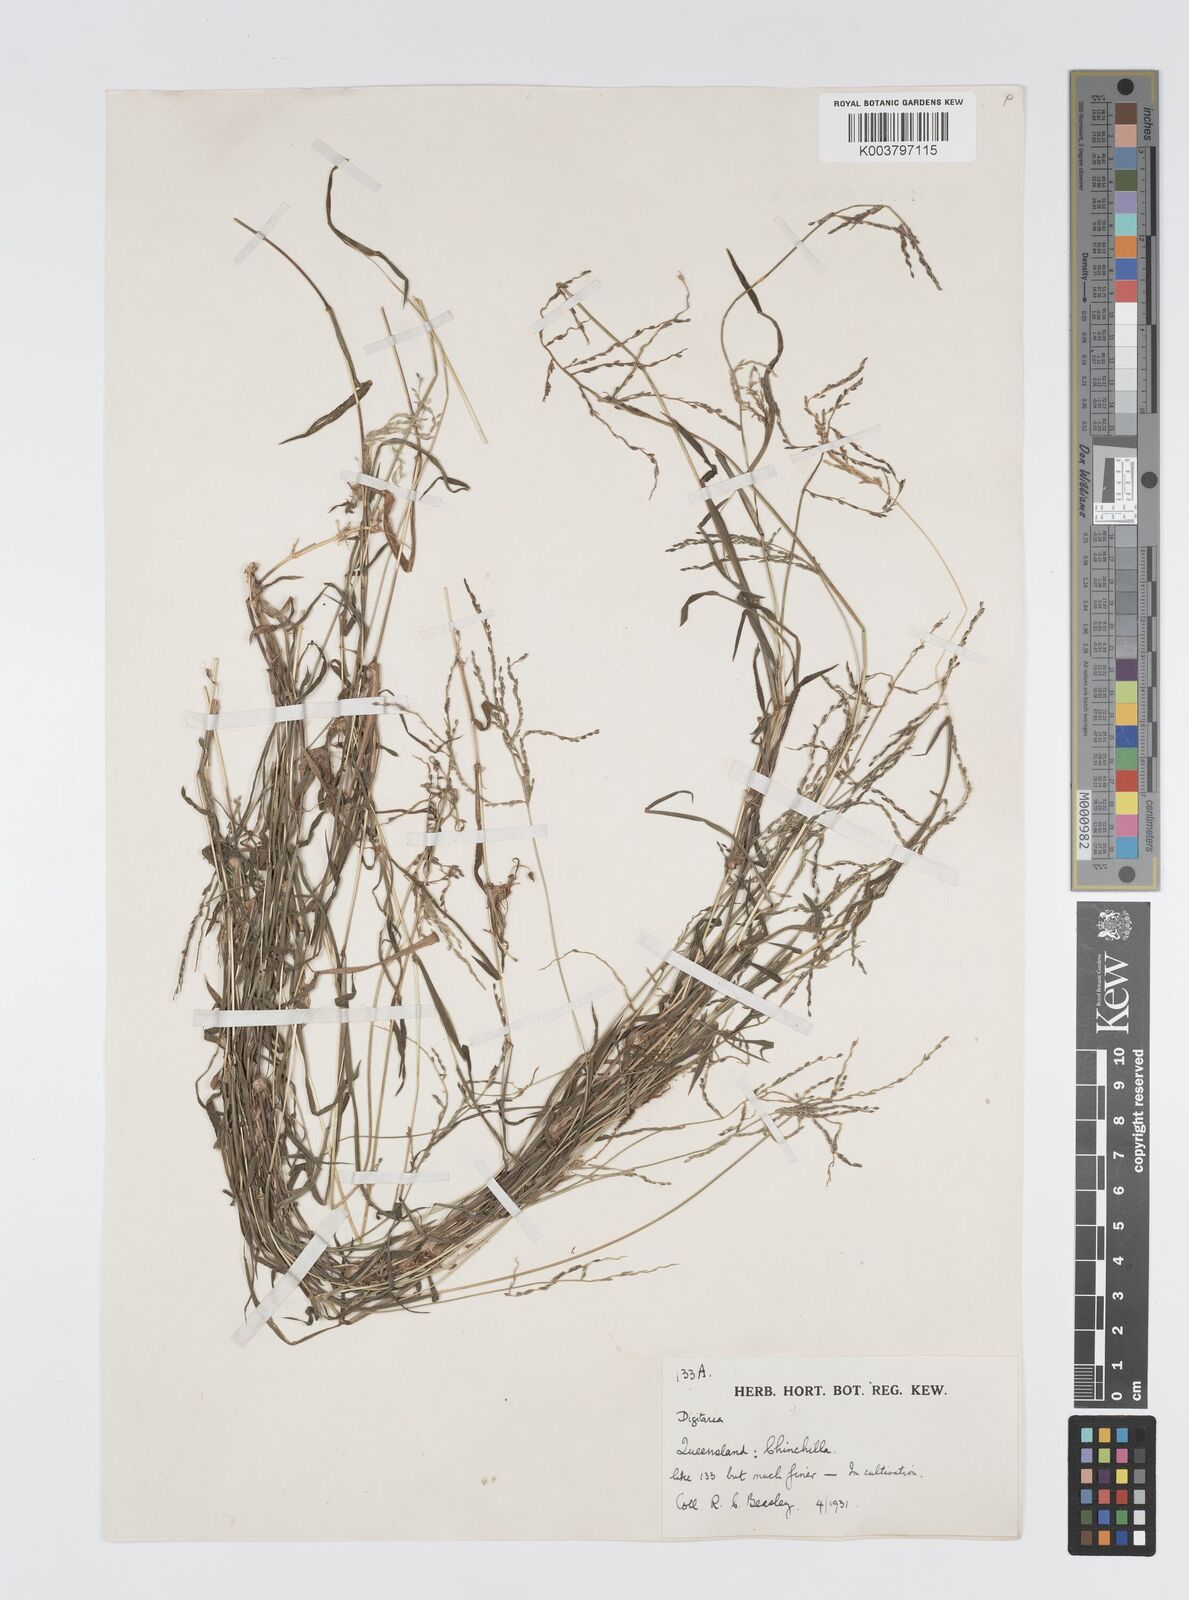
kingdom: Plantae
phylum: Tracheophyta
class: Liliopsida
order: Poales
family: Poaceae
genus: Digitaria
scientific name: Digitaria diffusa
